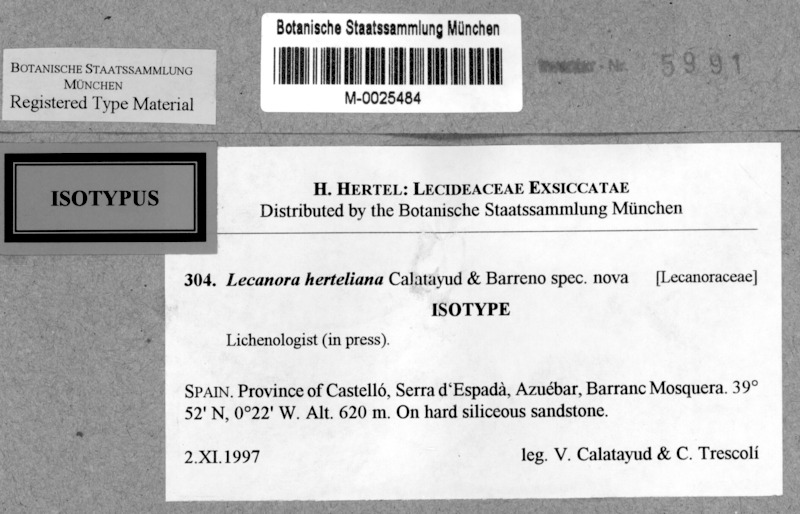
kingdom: Fungi
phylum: Ascomycota
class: Lecanoromycetes
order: Lecanorales
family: Lecanoraceae
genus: Lecanora
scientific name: Lecanora herteliana
